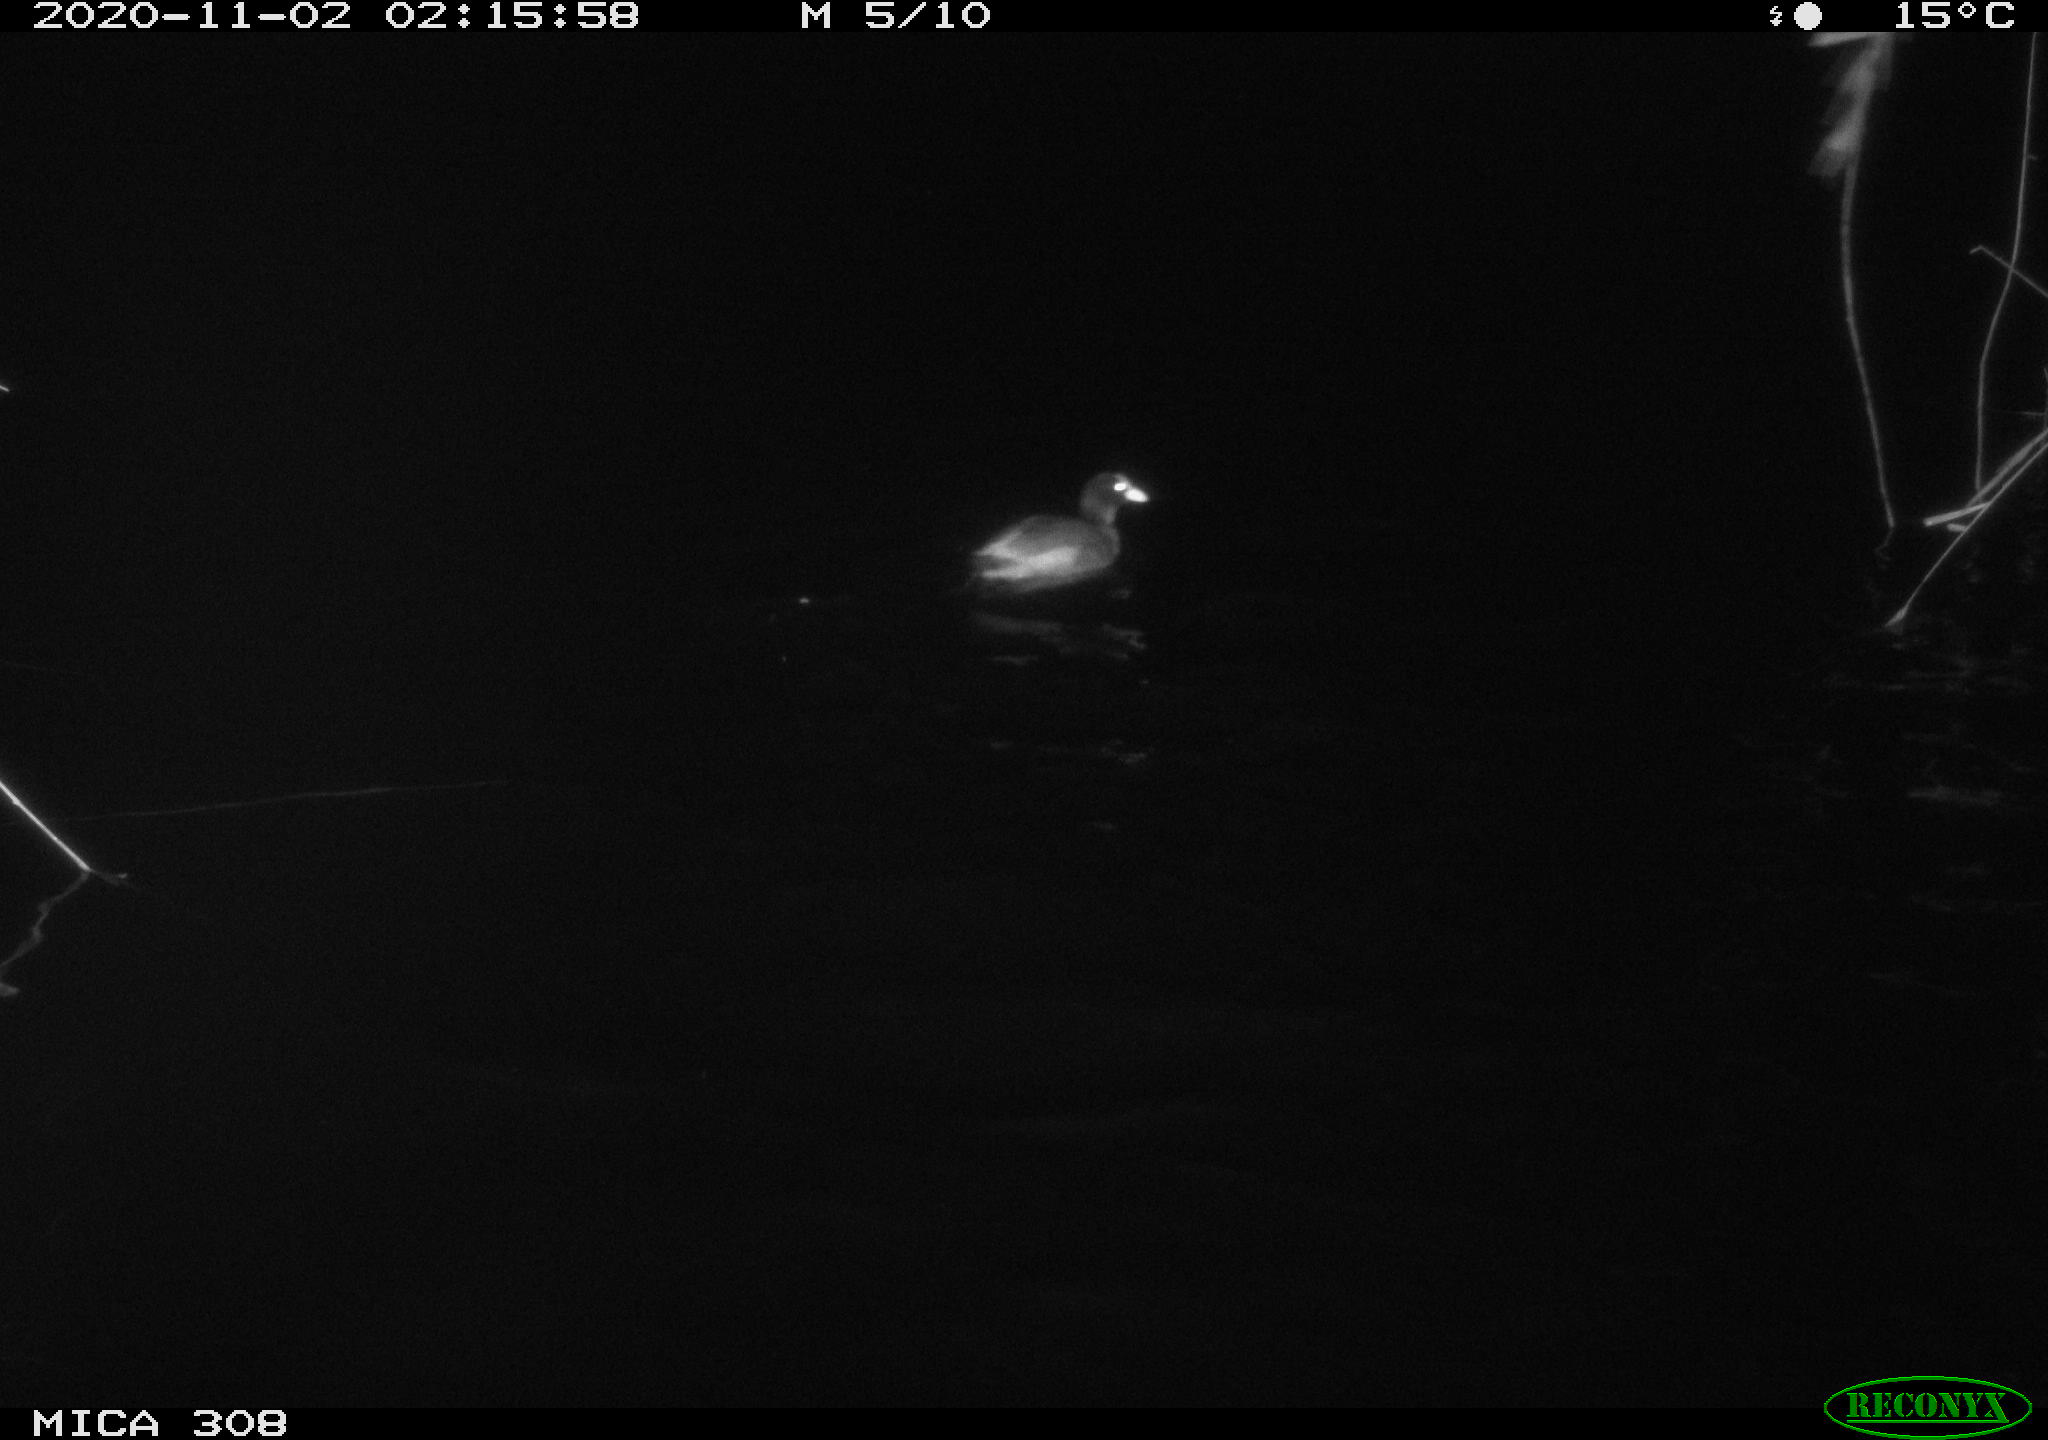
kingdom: Animalia
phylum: Chordata
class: Aves
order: Gruiformes
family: Rallidae
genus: Fulica
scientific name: Fulica atra
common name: Eurasian coot
